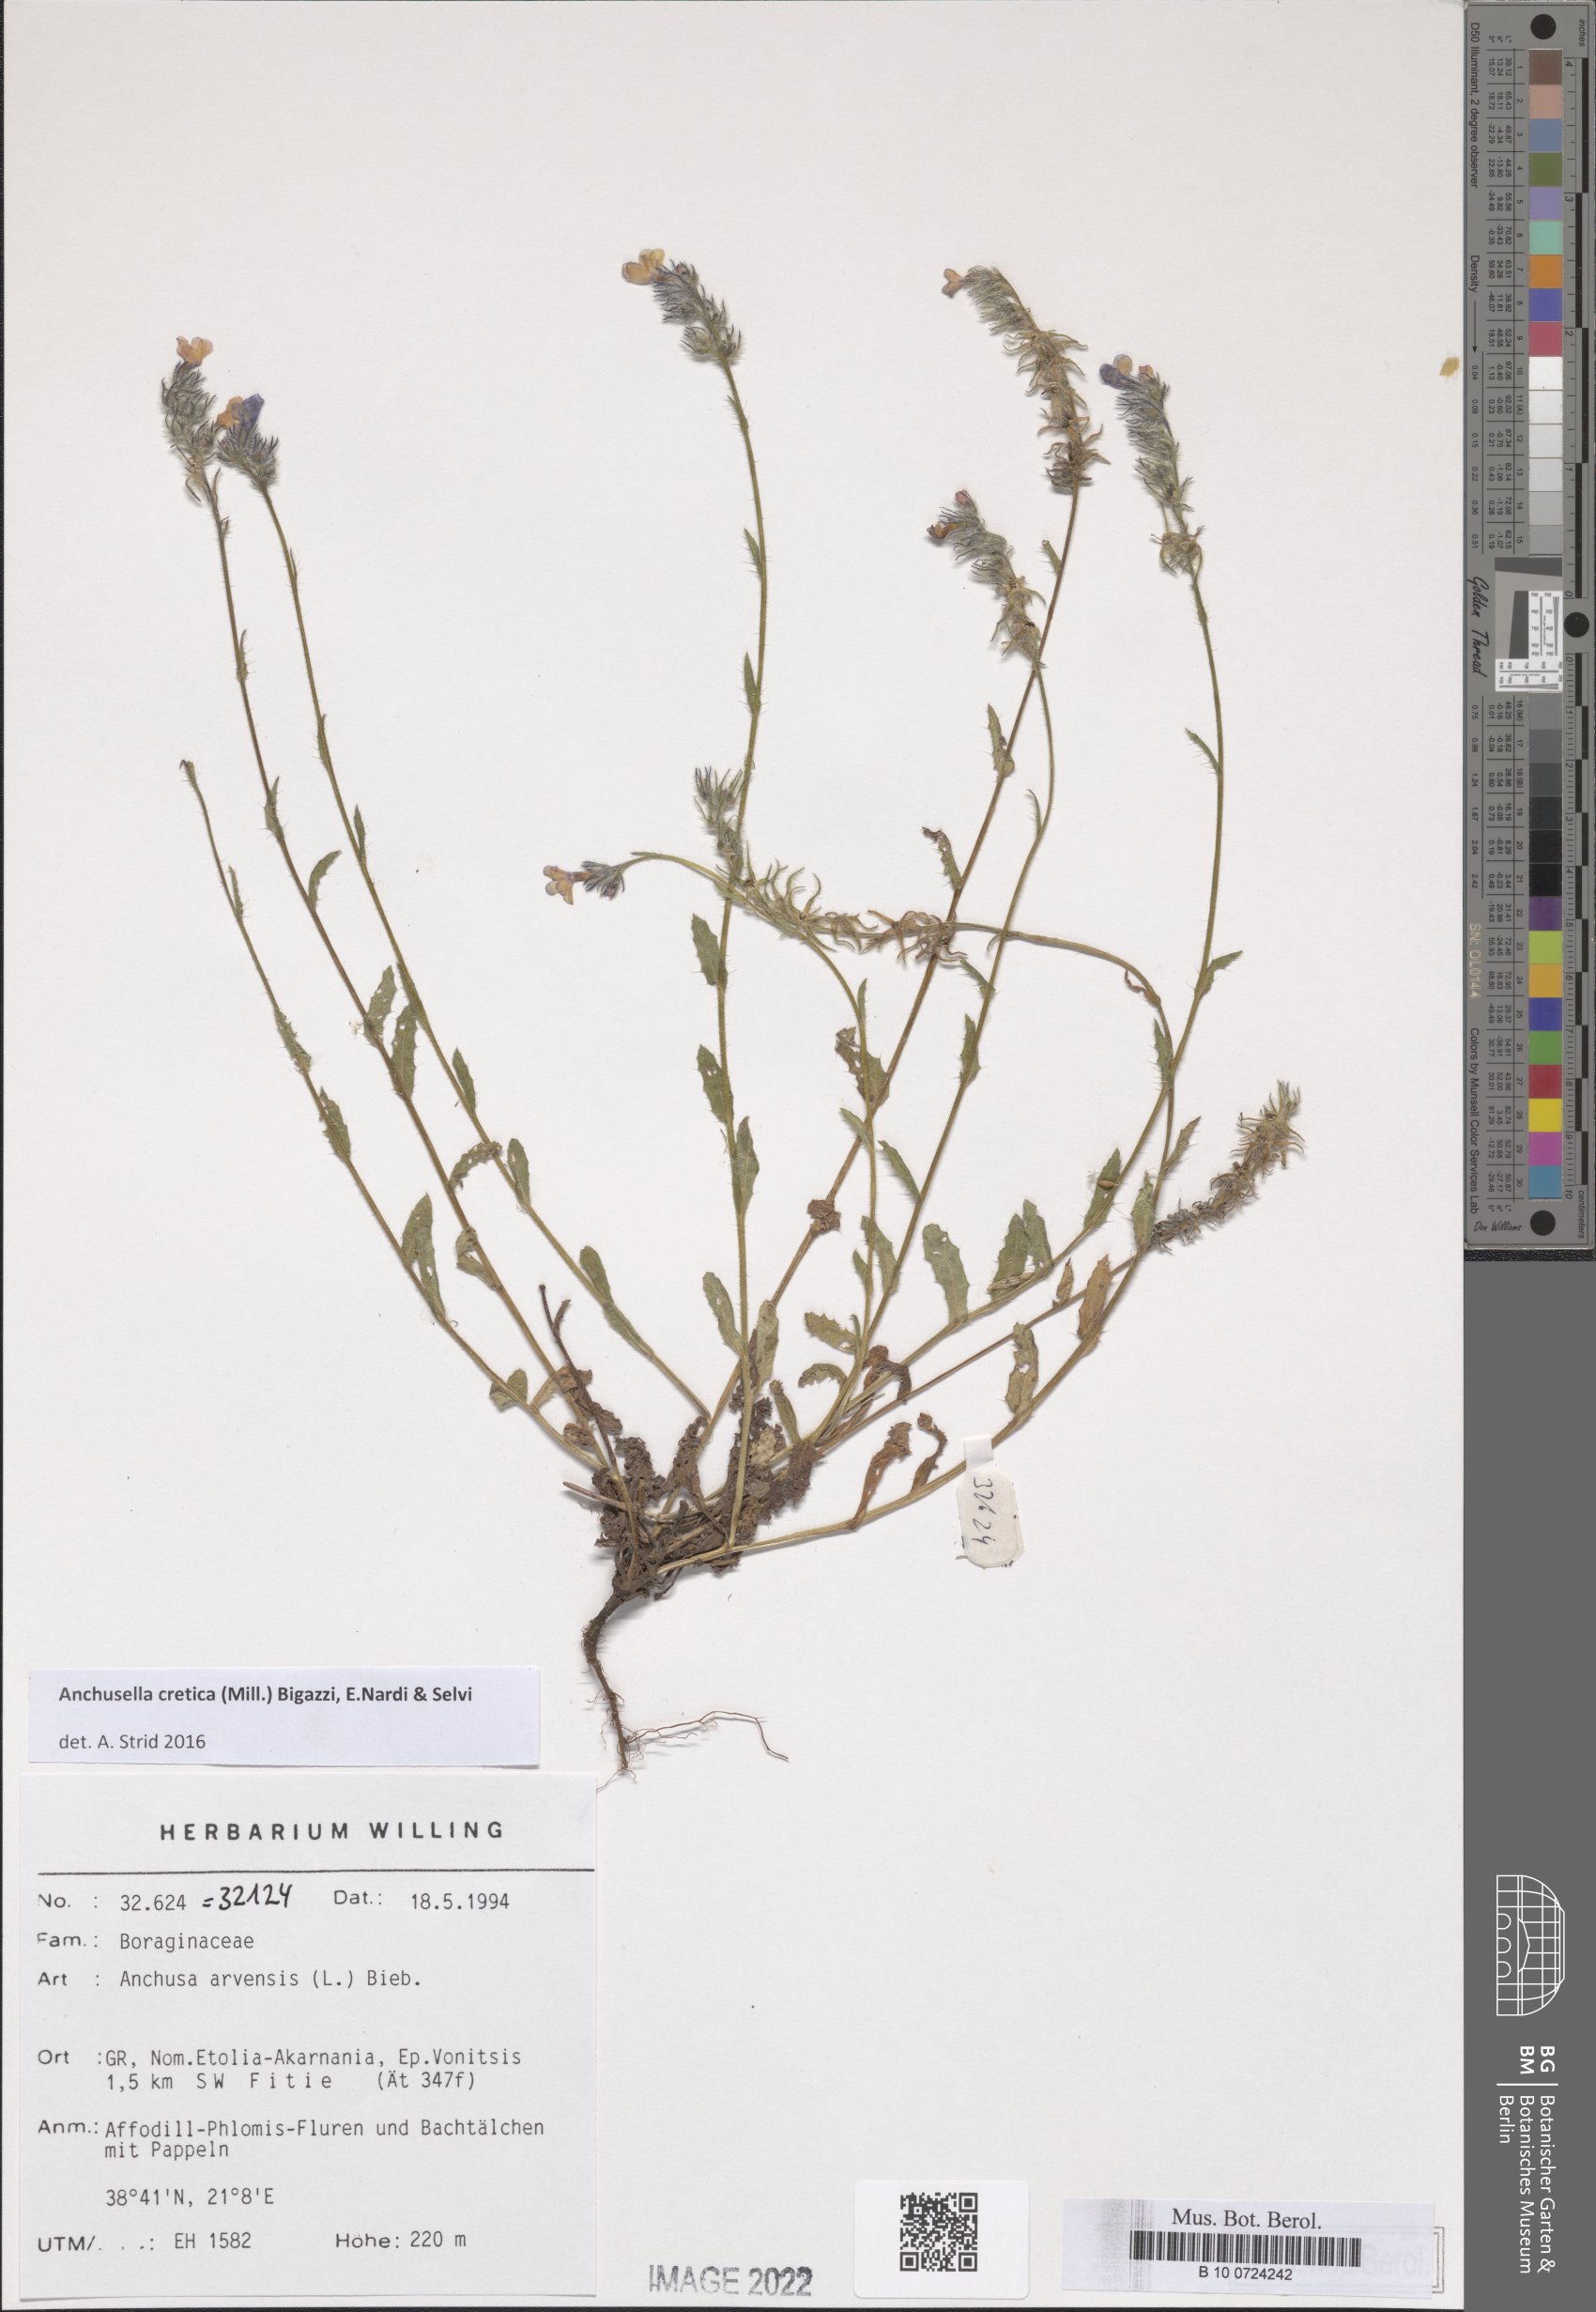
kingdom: Plantae
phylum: Tracheophyta
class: Magnoliopsida
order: Boraginales
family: Boraginaceae
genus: Anchusella
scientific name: Anchusella cretica
